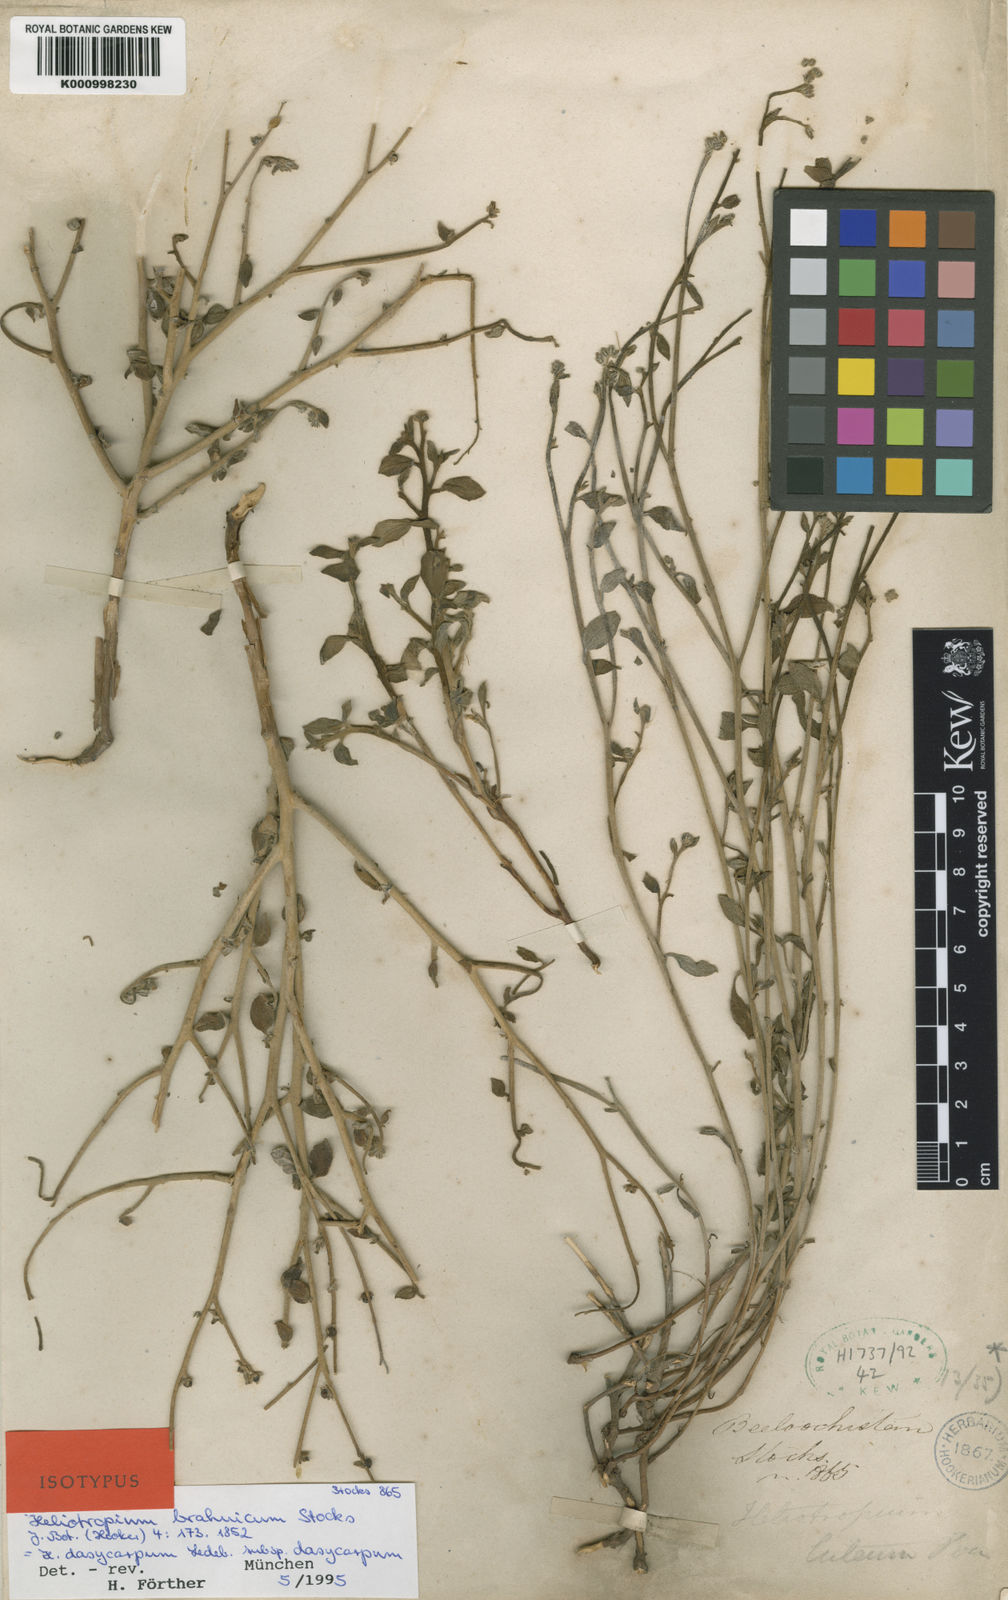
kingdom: Plantae
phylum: Tracheophyta
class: Magnoliopsida
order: Boraginales
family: Heliotropiaceae
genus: Heliotropium
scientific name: Heliotropium dasycarpum
